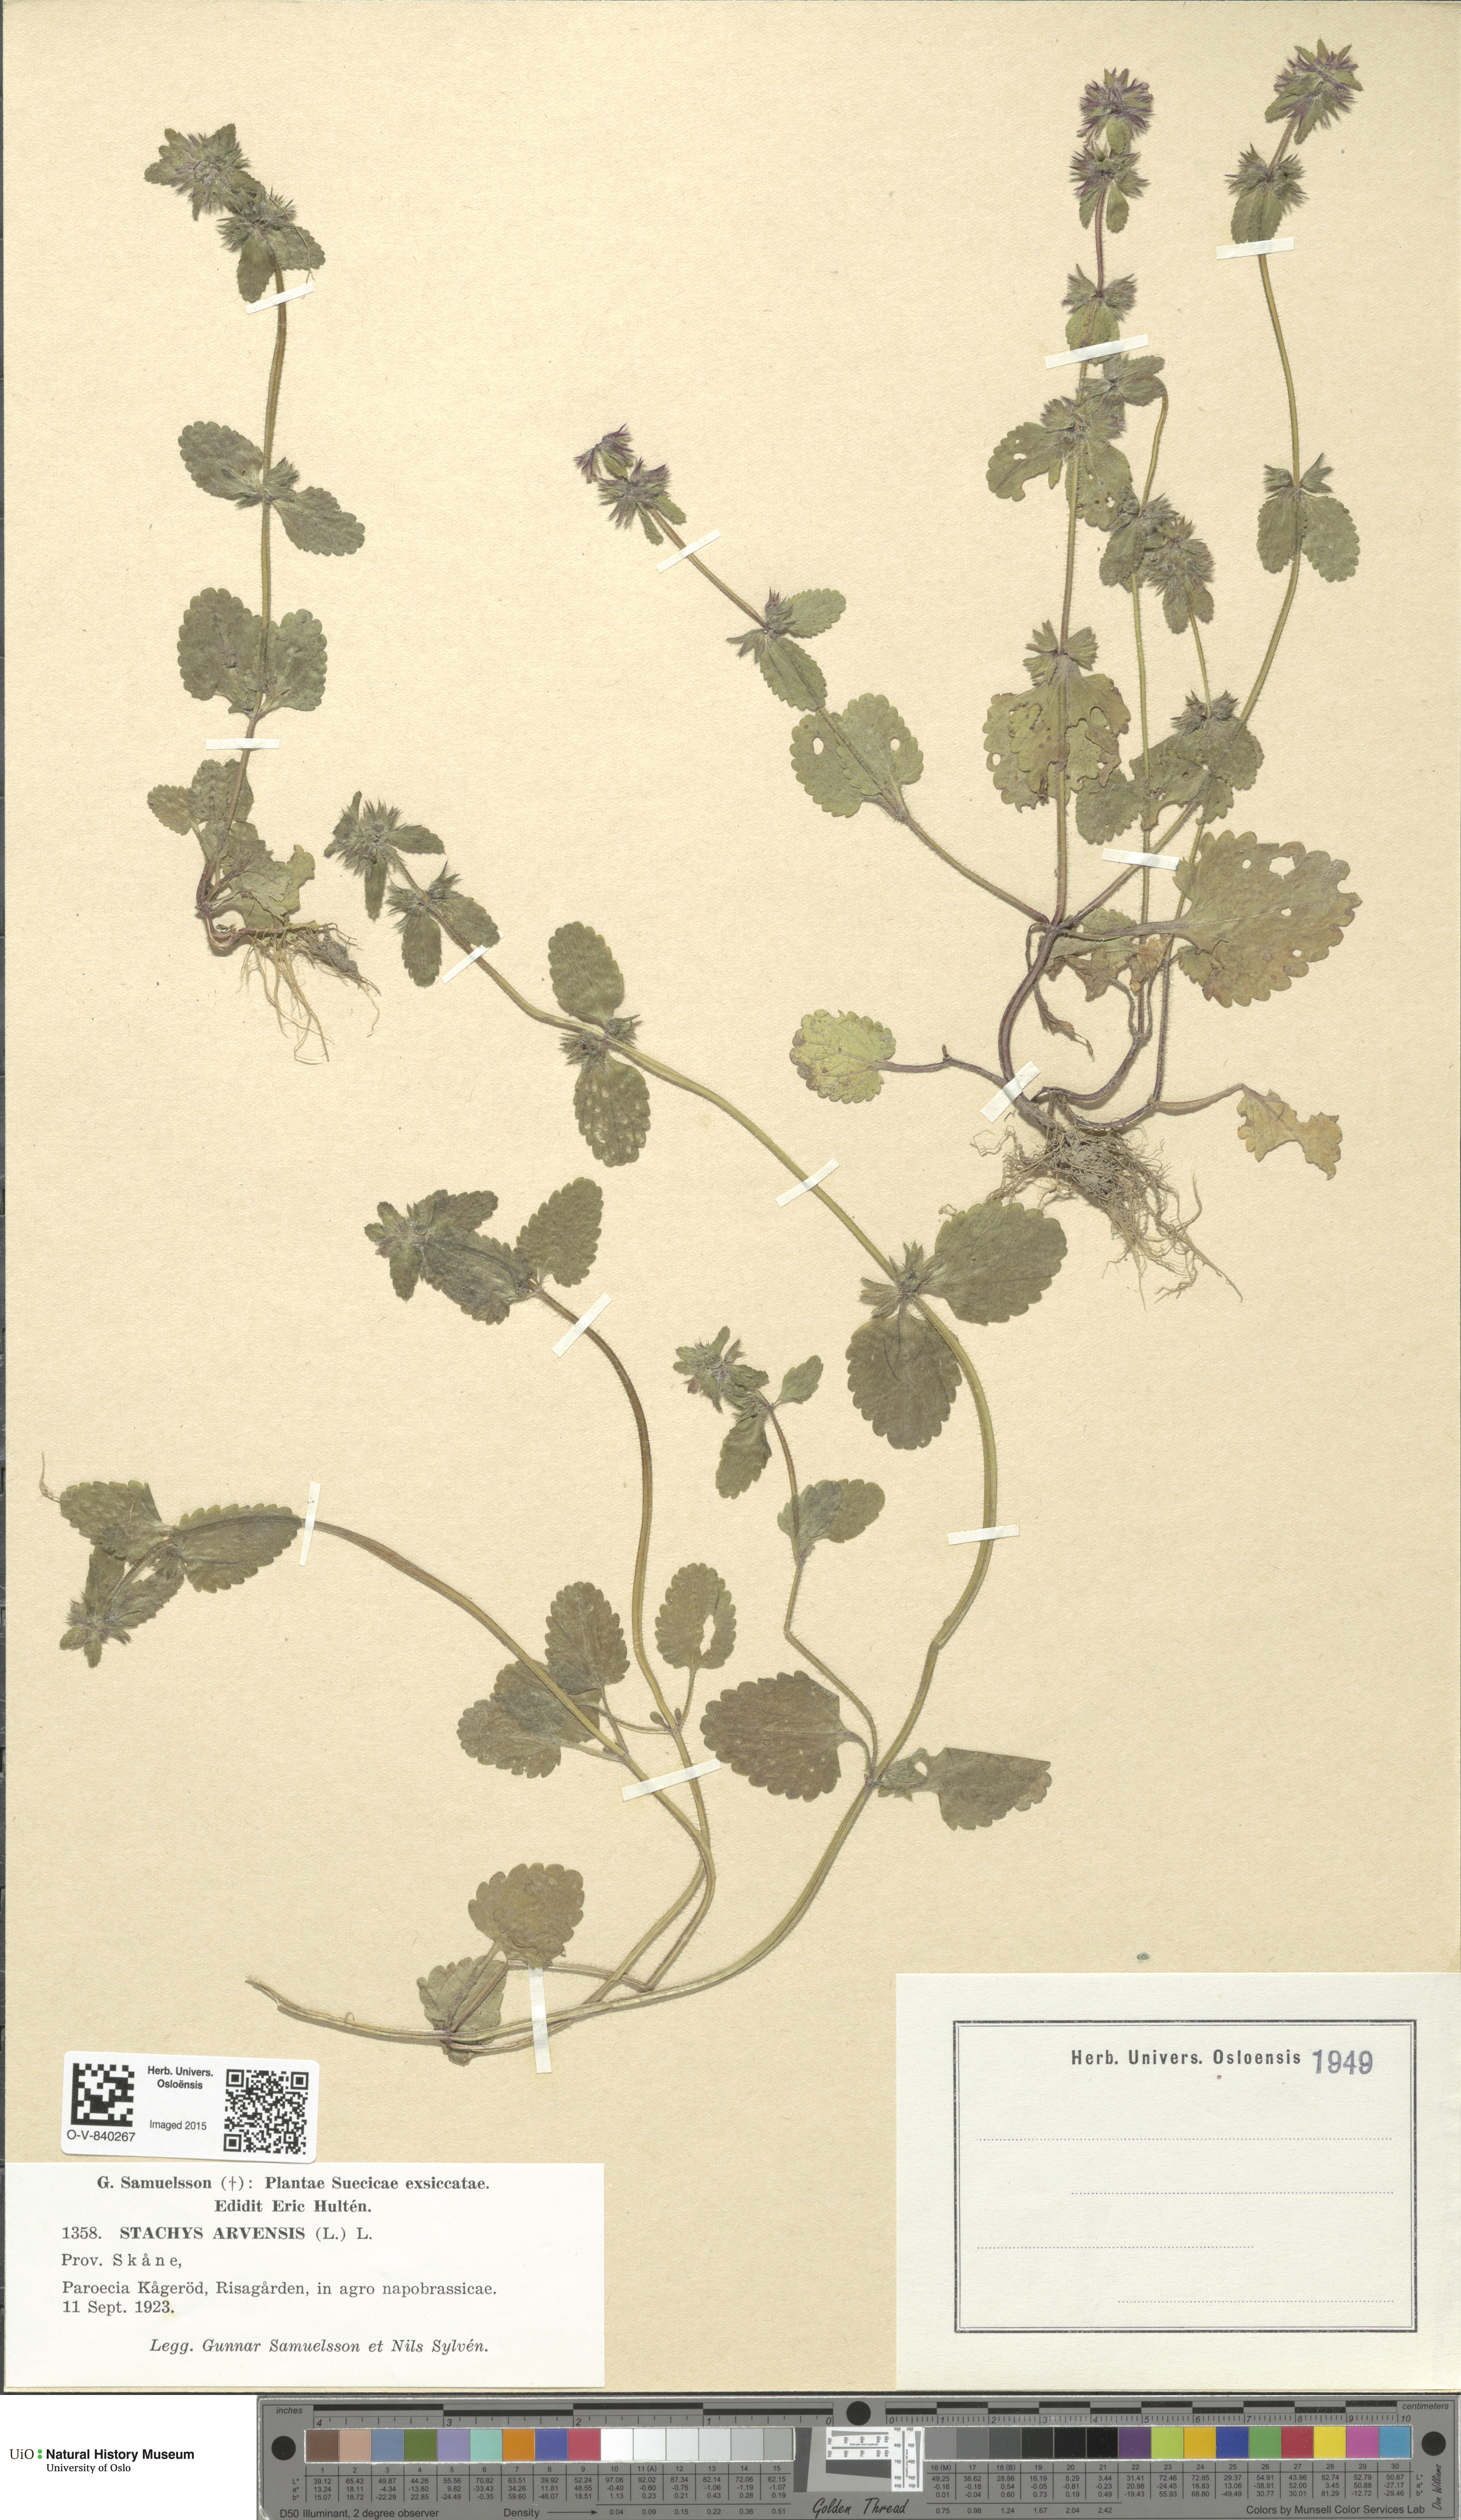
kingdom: Plantae
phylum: Tracheophyta
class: Magnoliopsida
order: Lamiales
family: Lamiaceae
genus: Stachys
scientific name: Stachys arvensis
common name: Field woundwort
